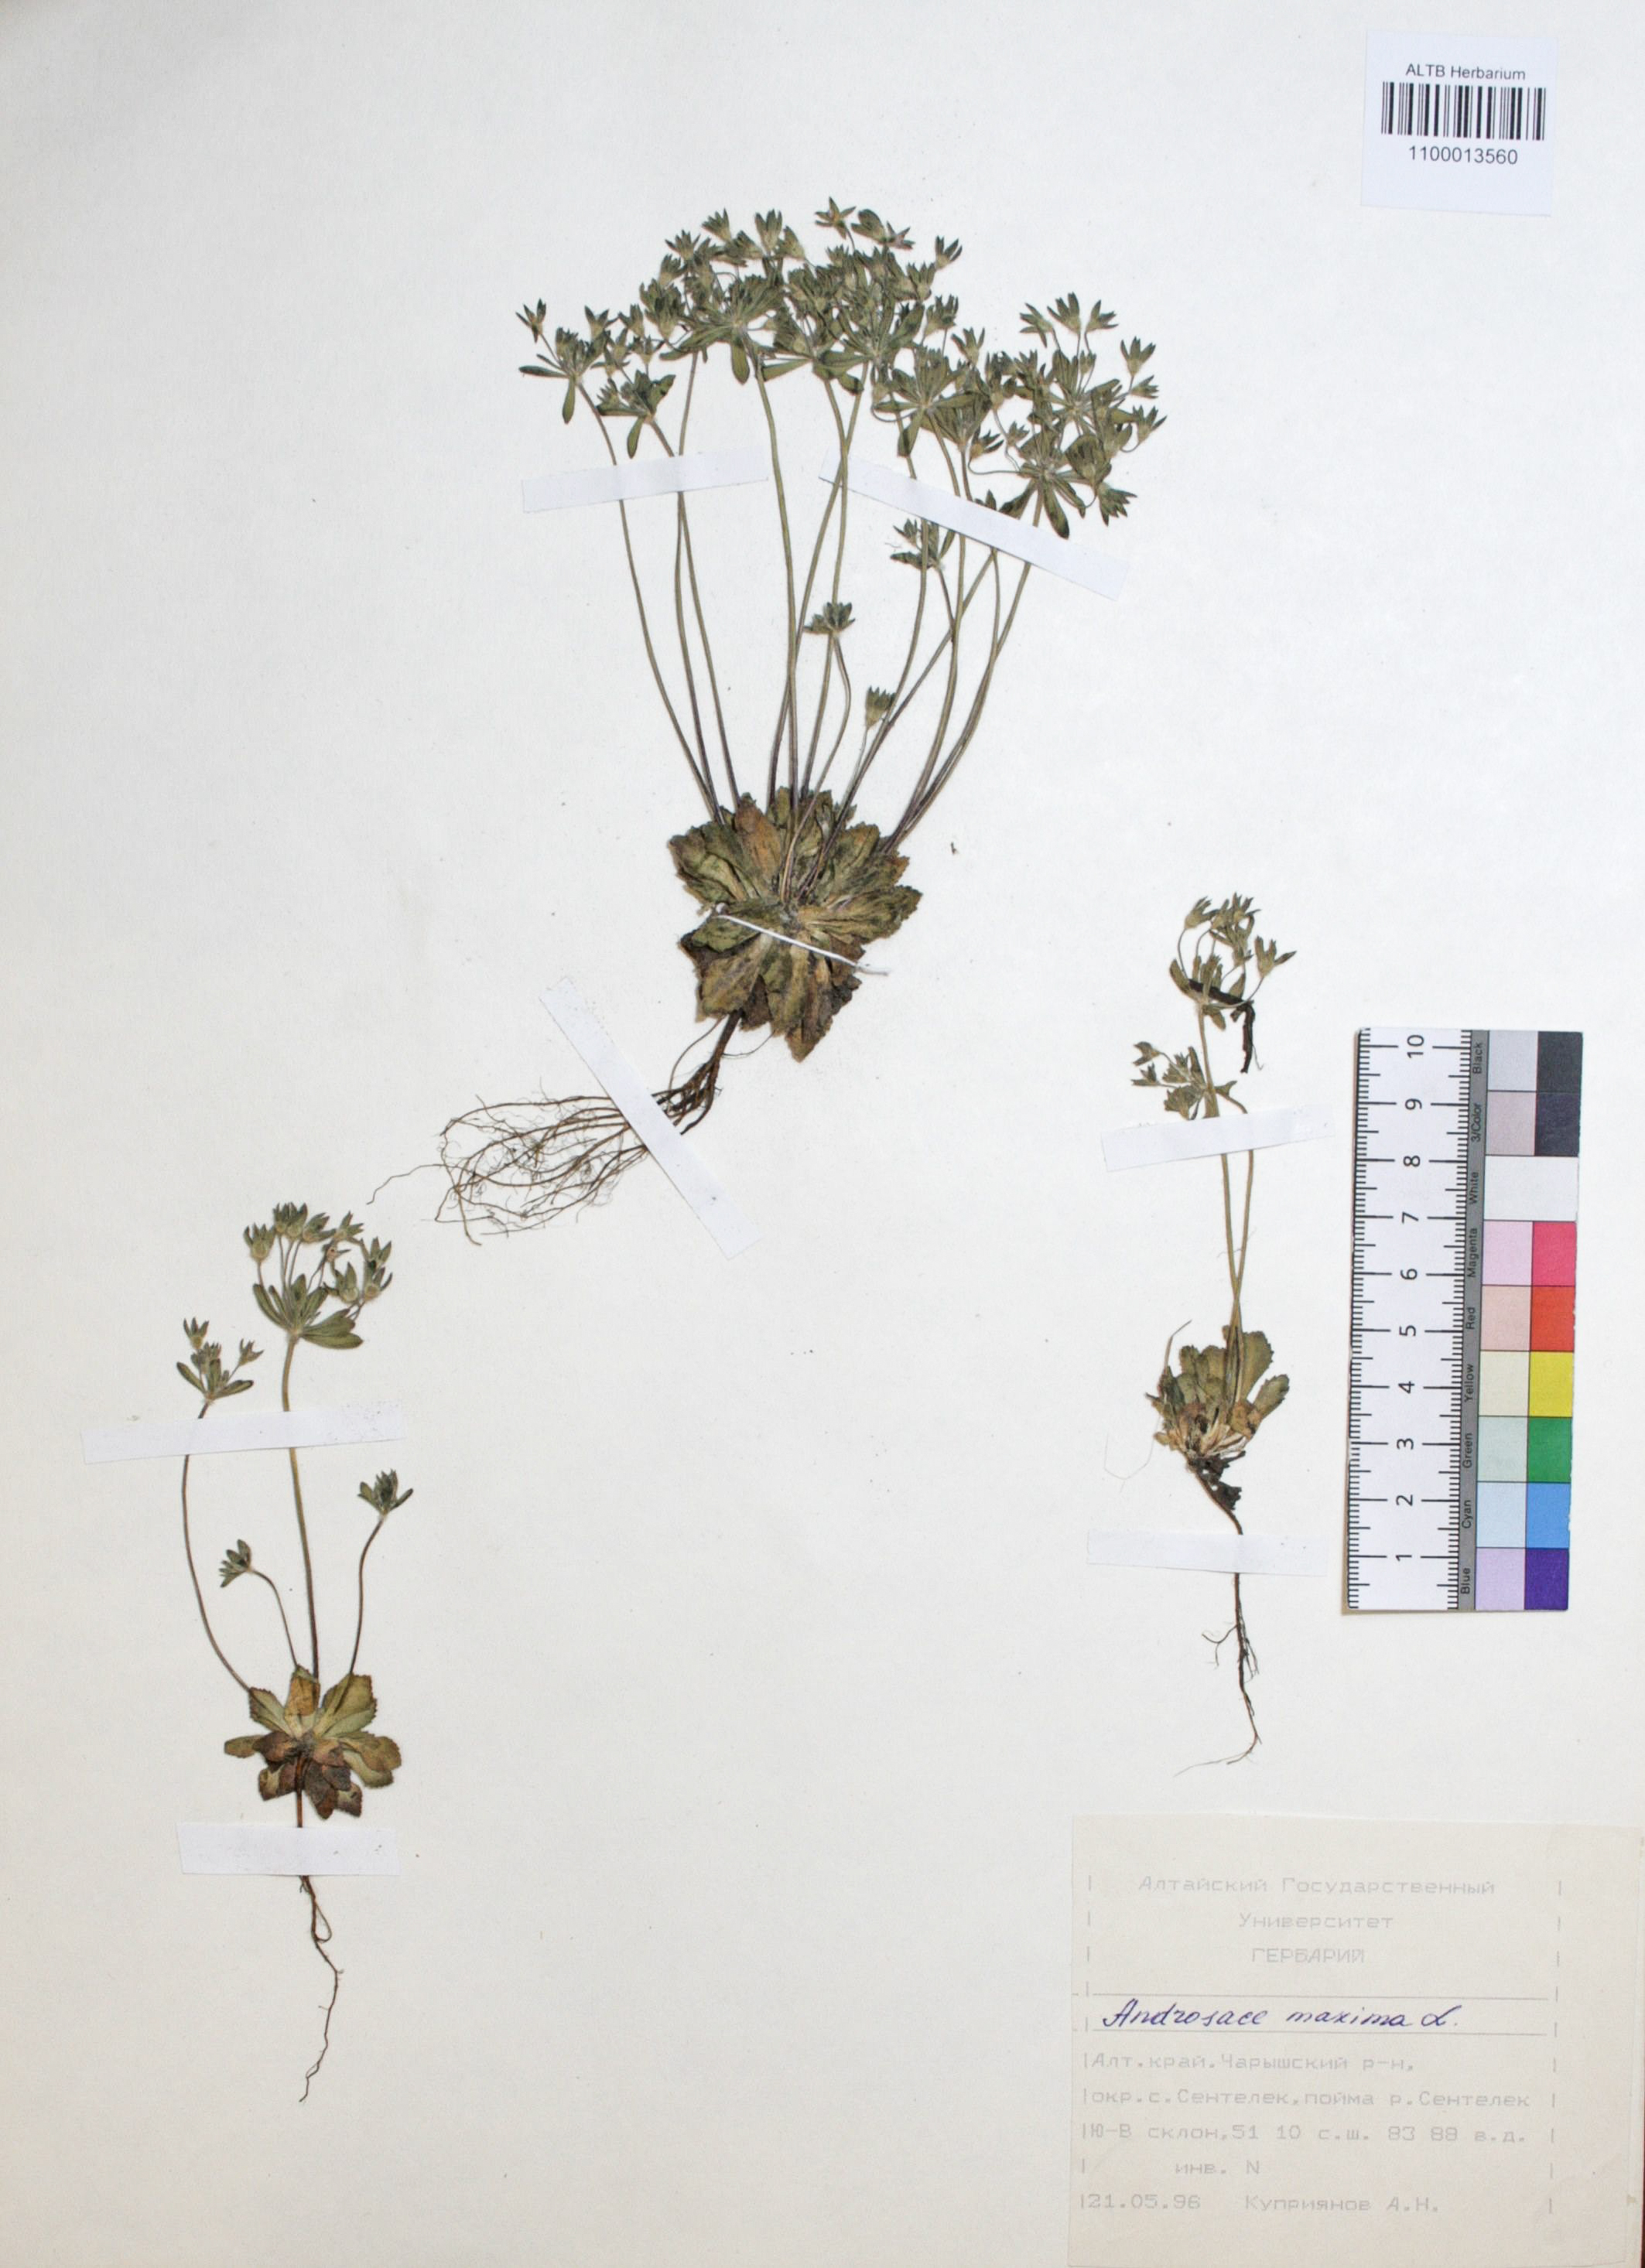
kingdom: Plantae
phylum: Tracheophyta
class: Magnoliopsida
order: Ericales
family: Primulaceae
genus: Androsace
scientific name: Androsace maxima
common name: Annual androsace
